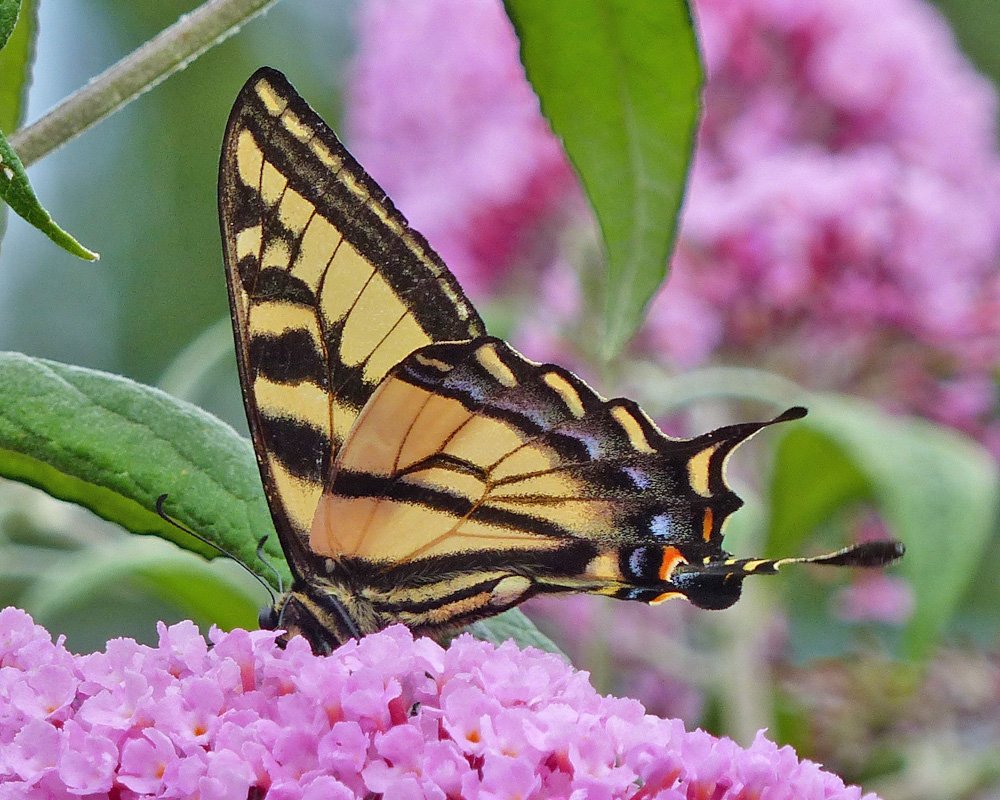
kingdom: Animalia
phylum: Arthropoda
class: Insecta
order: Lepidoptera
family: Papilionidae
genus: Pterourus
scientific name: Pterourus rutulus
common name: Western Tiger Swallowtail
